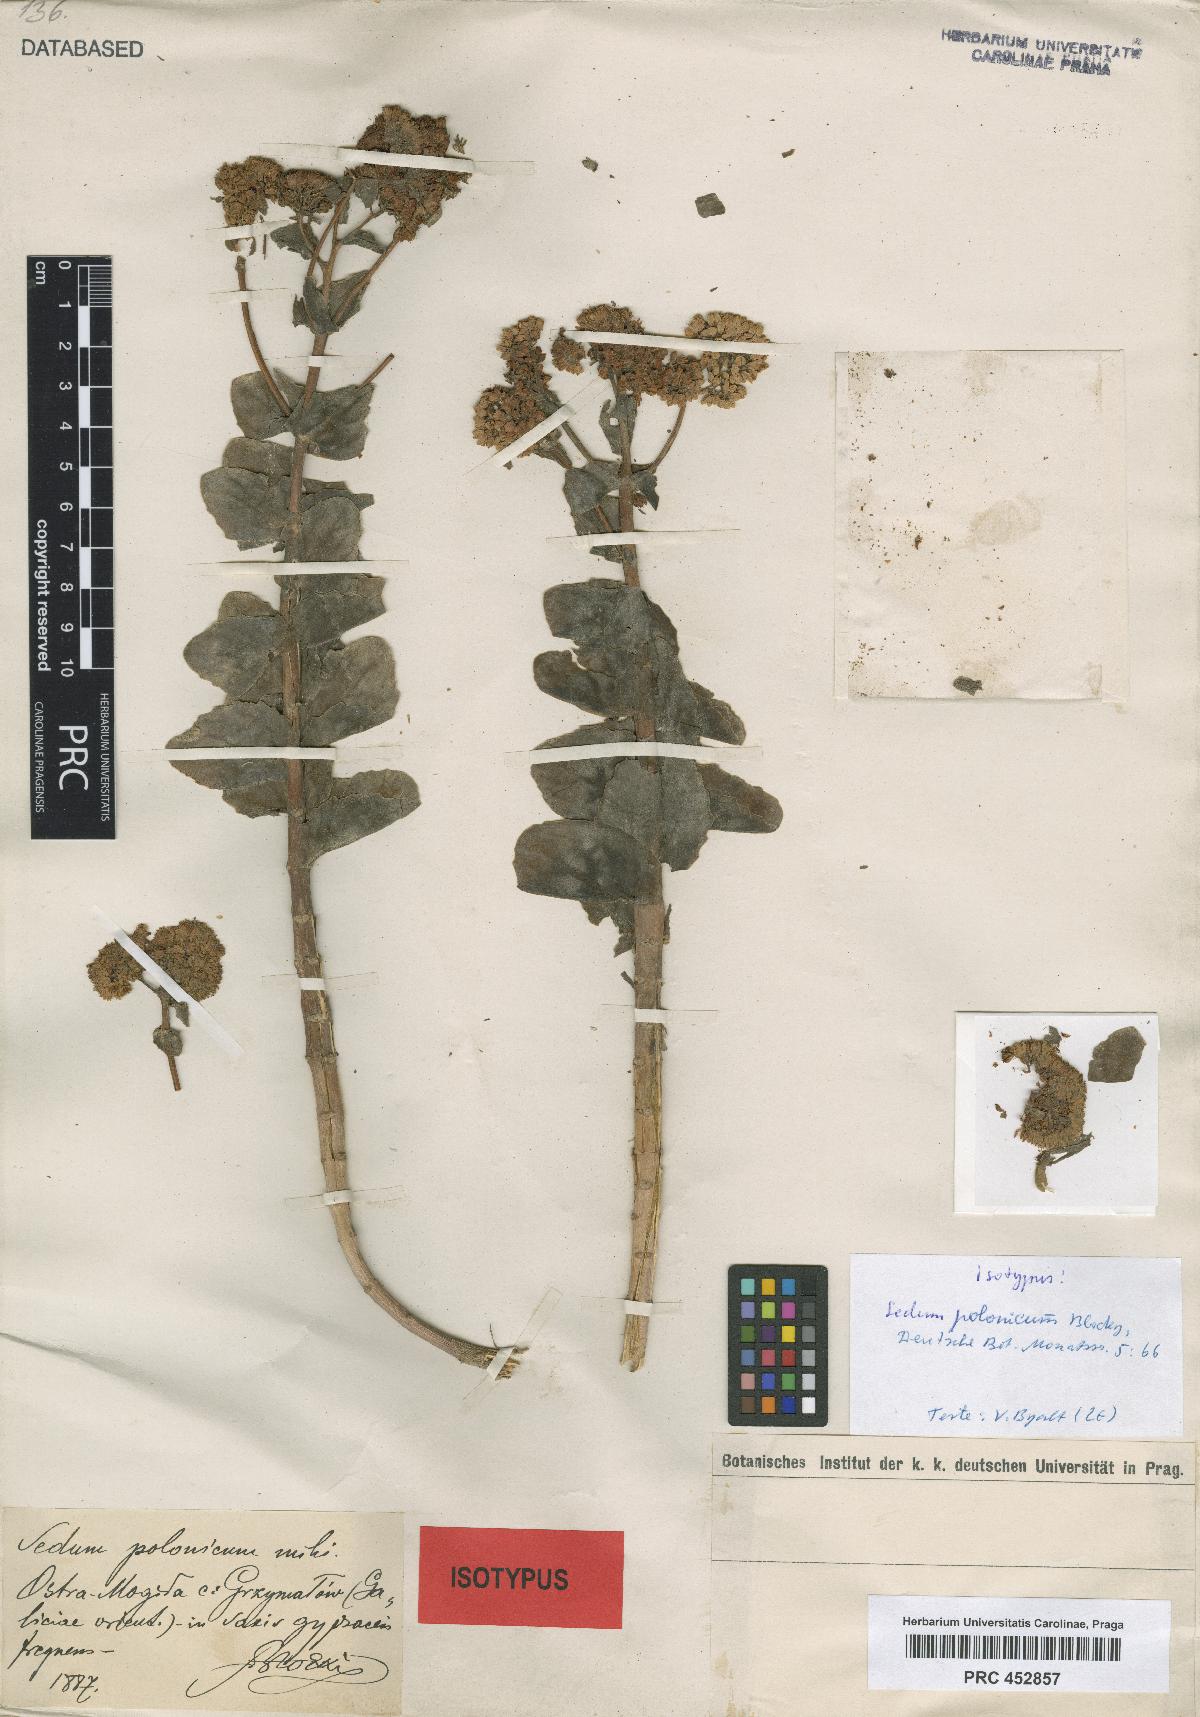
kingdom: Plantae
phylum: Tracheophyta
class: Magnoliopsida
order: Saxifragales
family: Crassulaceae
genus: Hylotelephium
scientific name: Hylotelephium maximum
